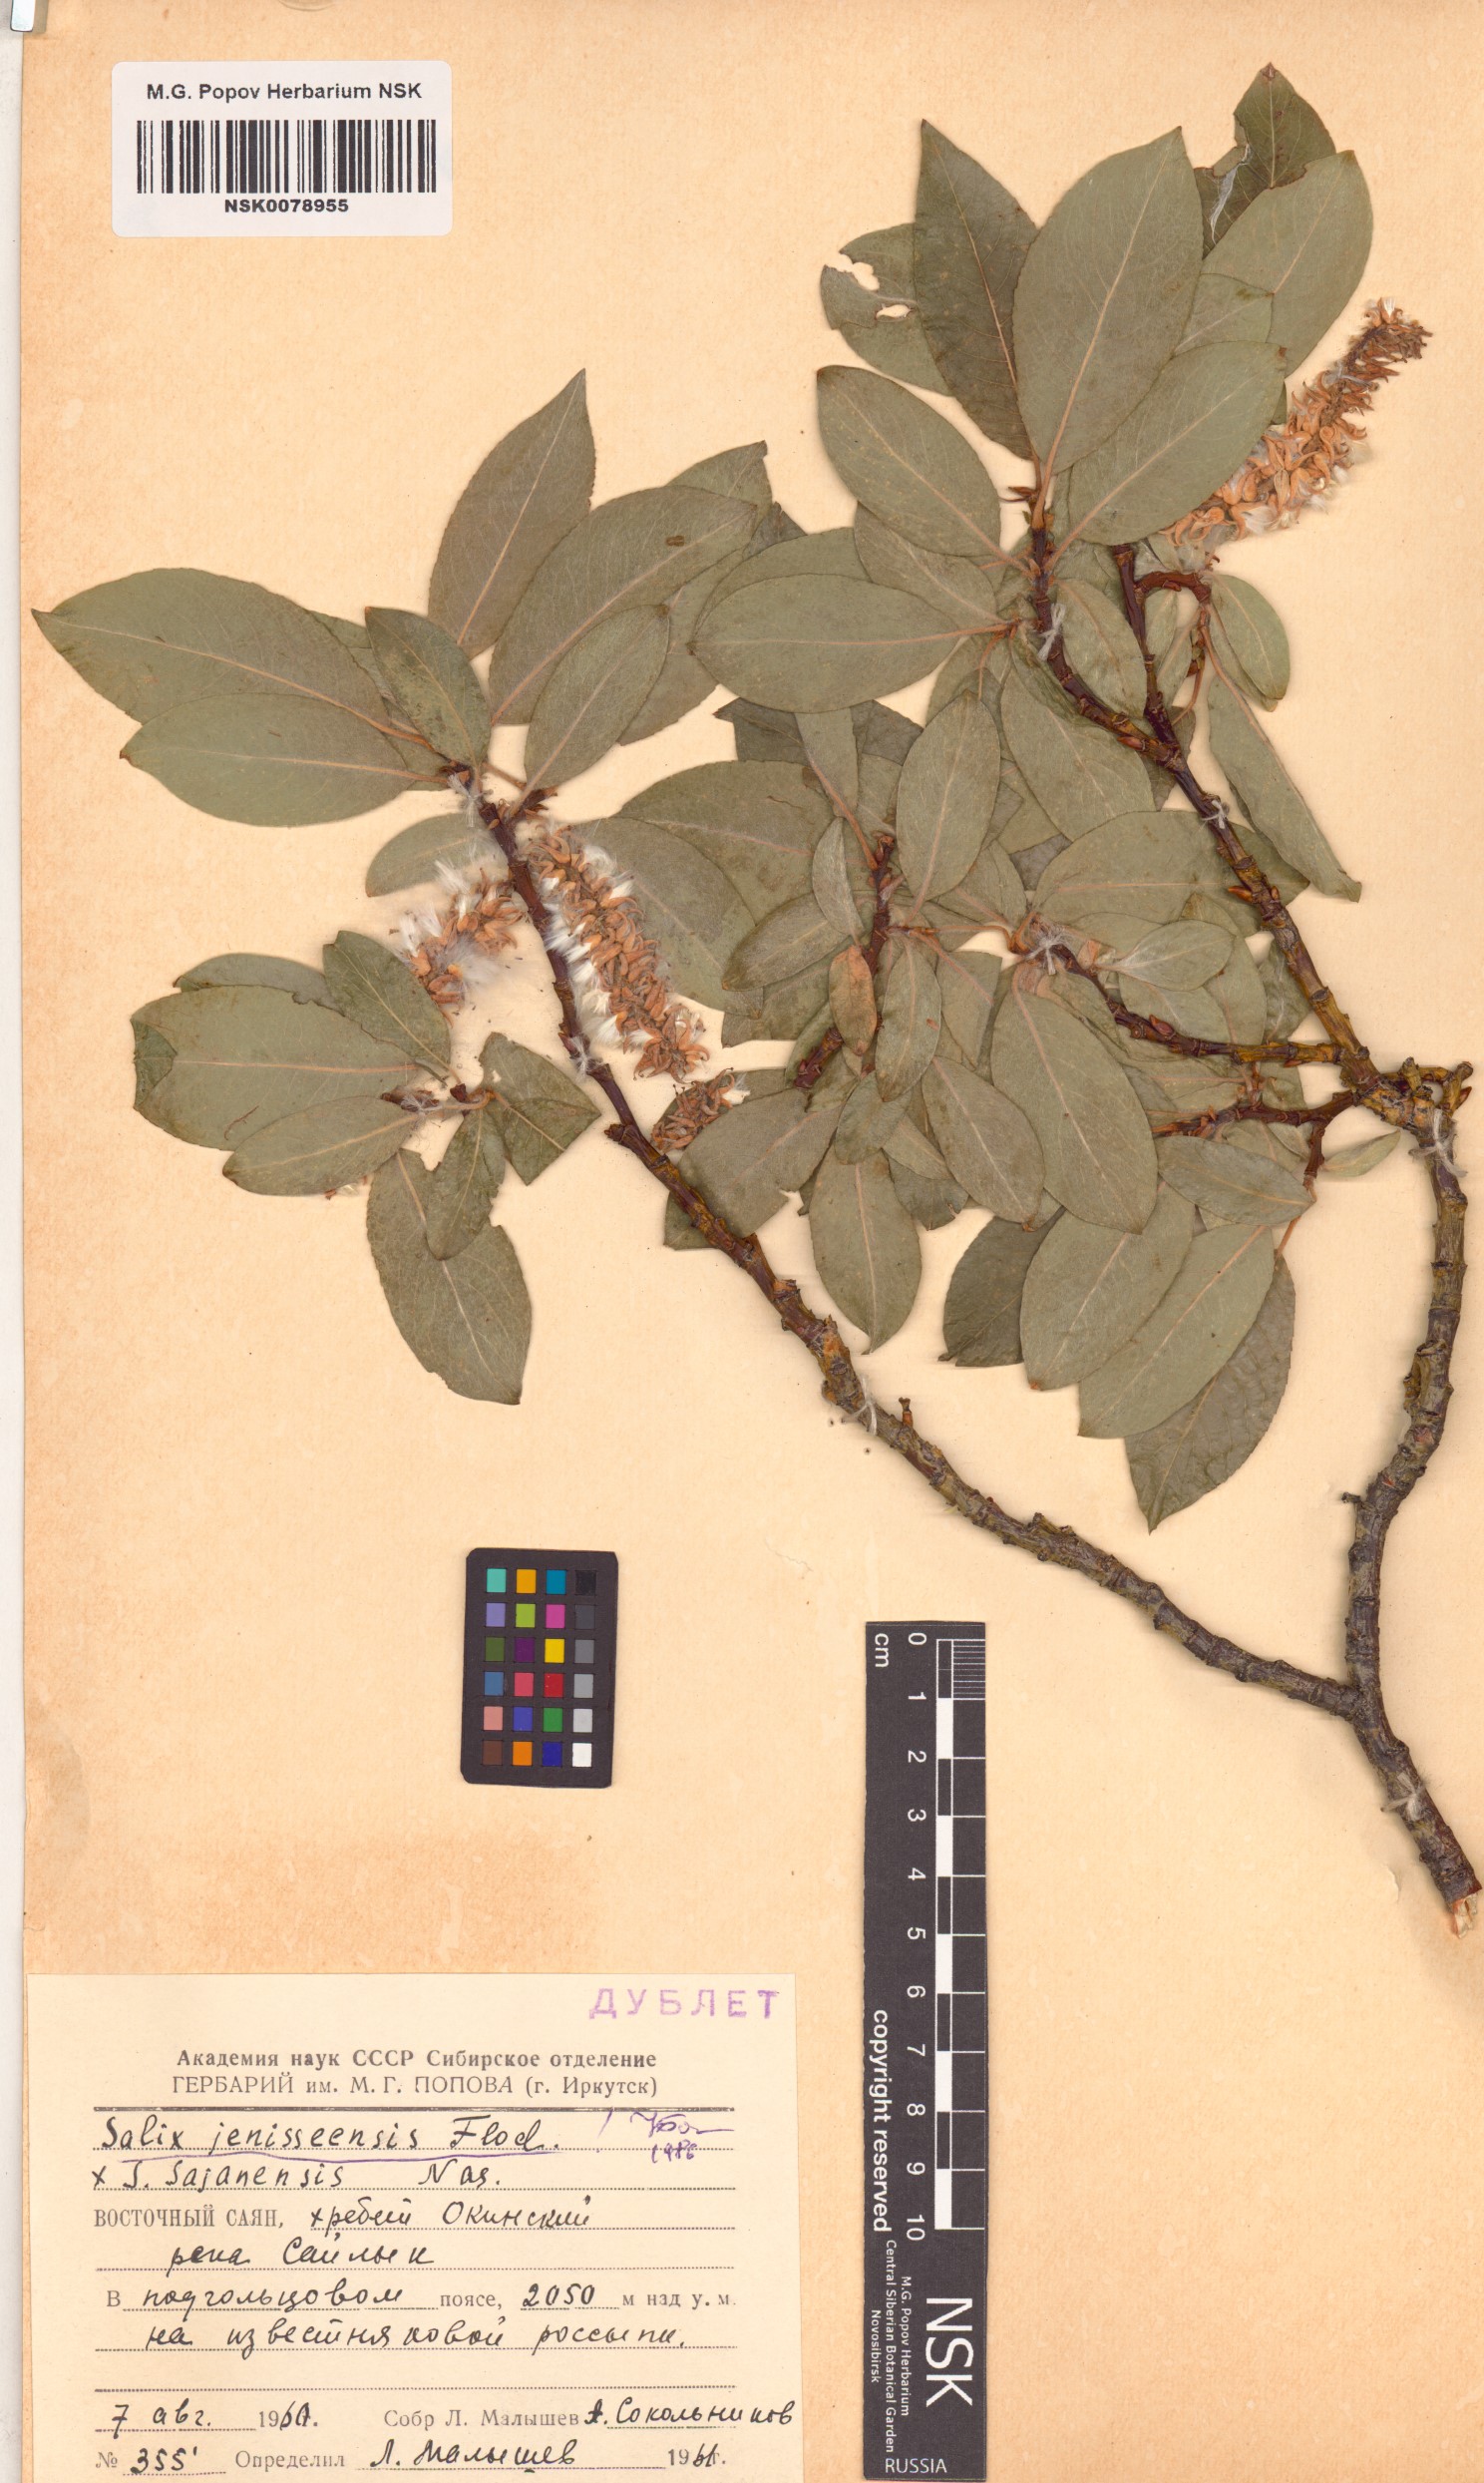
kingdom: Plantae
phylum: Tracheophyta
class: Magnoliopsida
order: Malpighiales
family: Salicaceae
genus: Salix
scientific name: Salix jenisseensis
